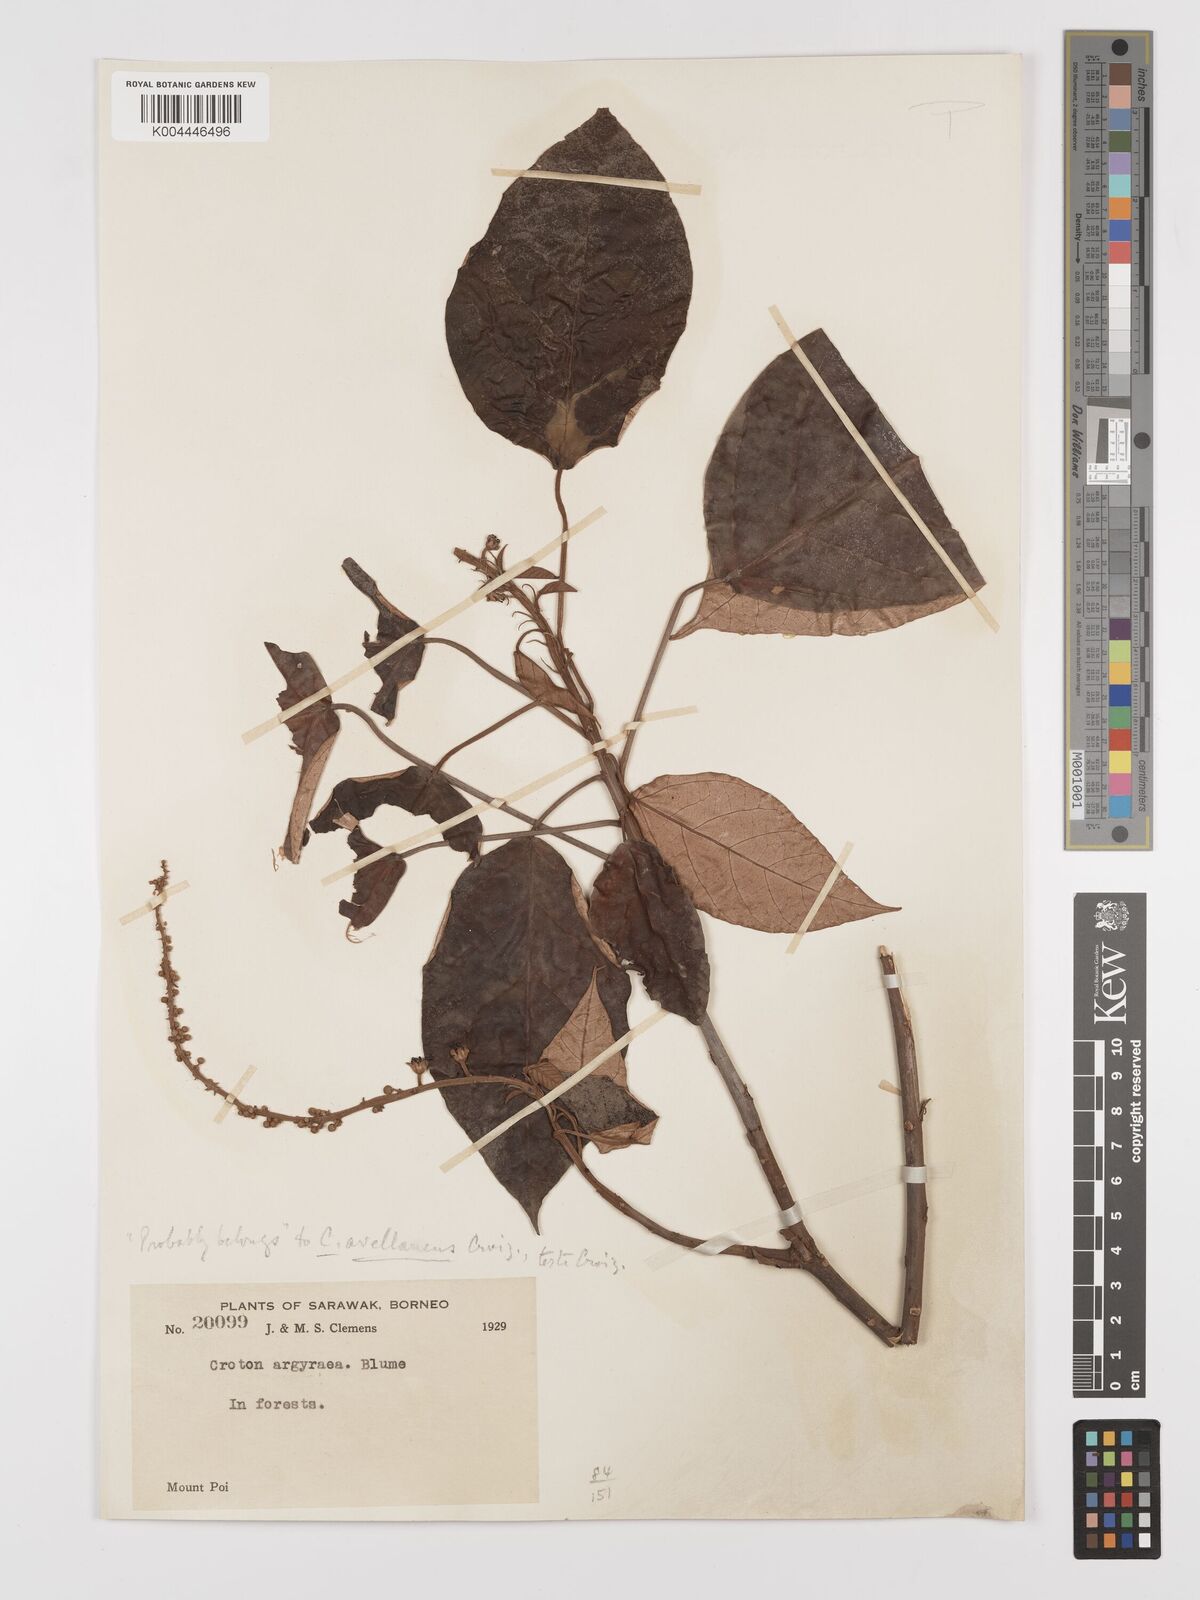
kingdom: Plantae
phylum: Tracheophyta
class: Magnoliopsida
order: Malpighiales
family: Euphorbiaceae
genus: Croton
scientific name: Croton argyratus
